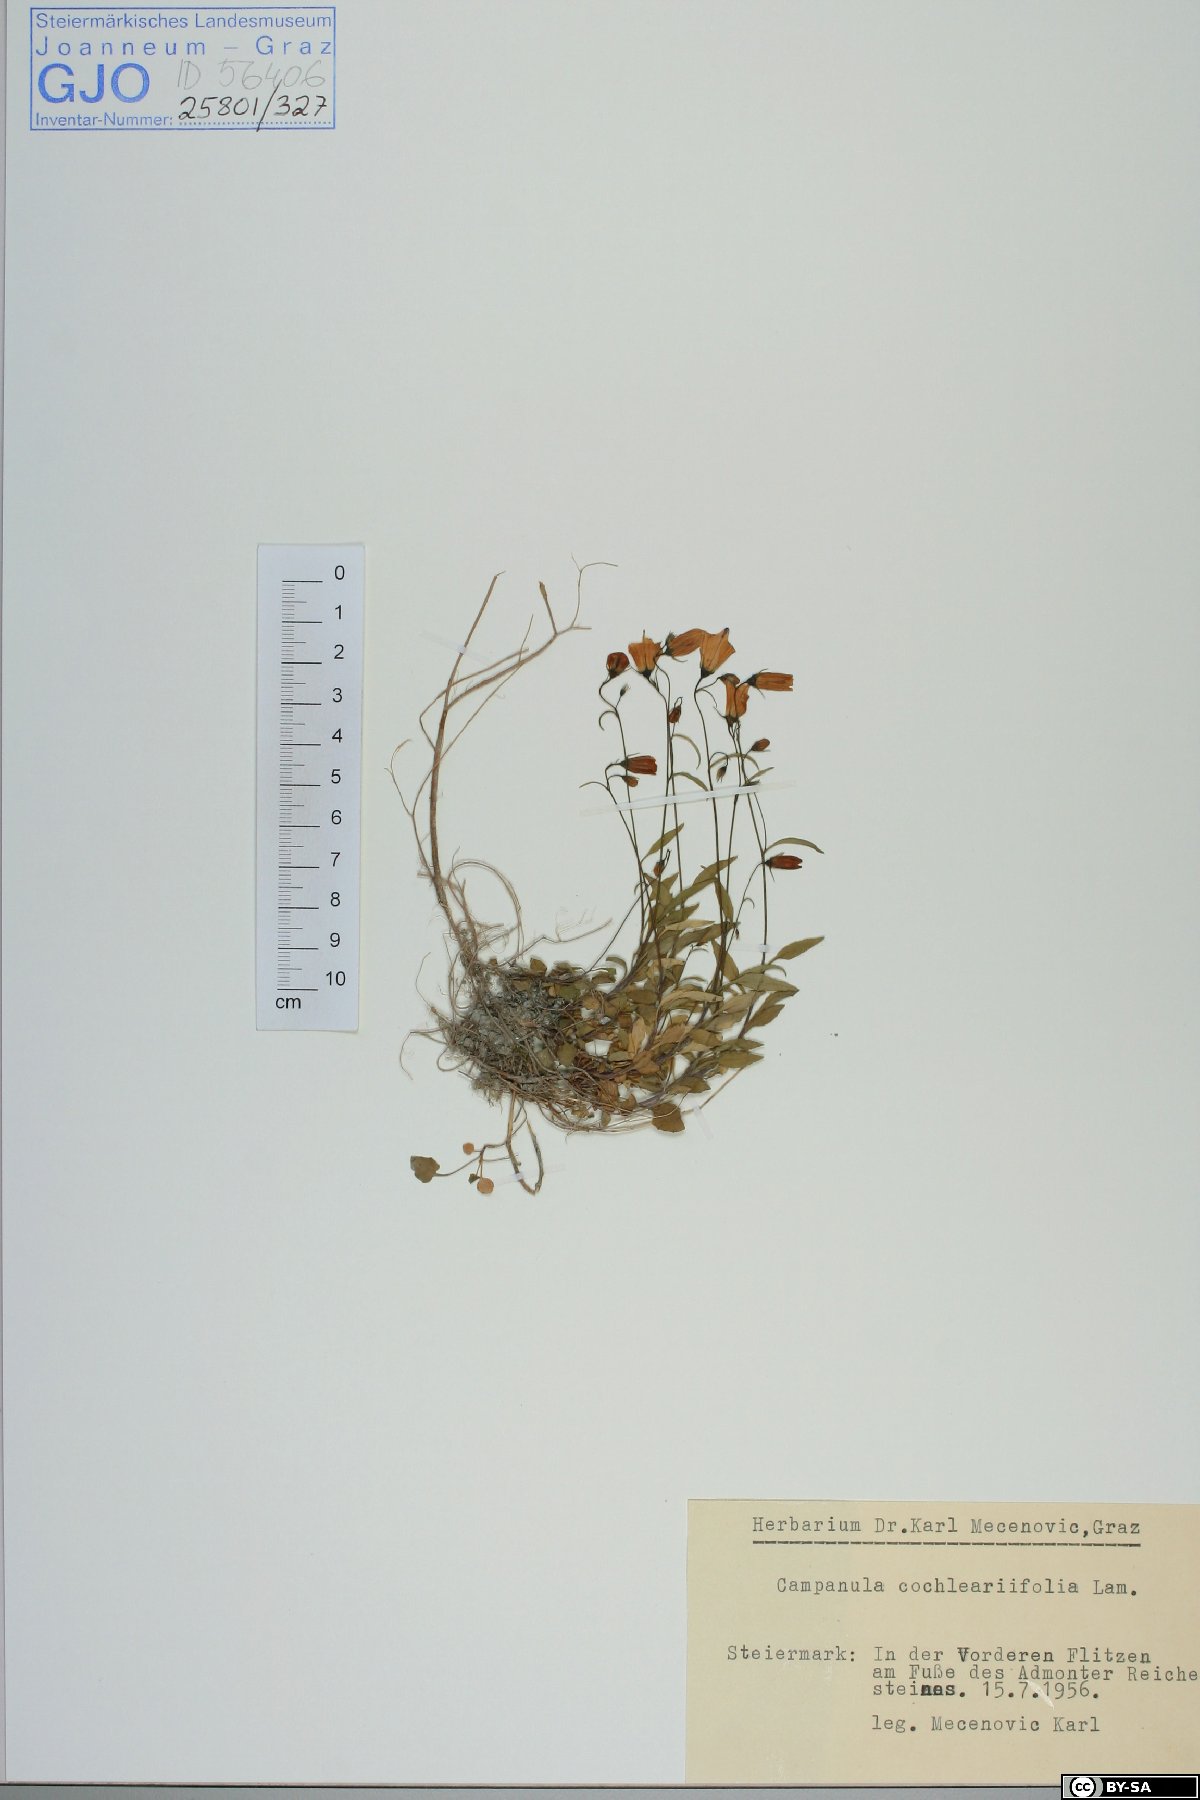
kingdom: Plantae
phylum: Tracheophyta
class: Magnoliopsida
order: Asterales
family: Campanulaceae
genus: Campanula
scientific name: Campanula cochleariifolia
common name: Fairies'-thimbles
